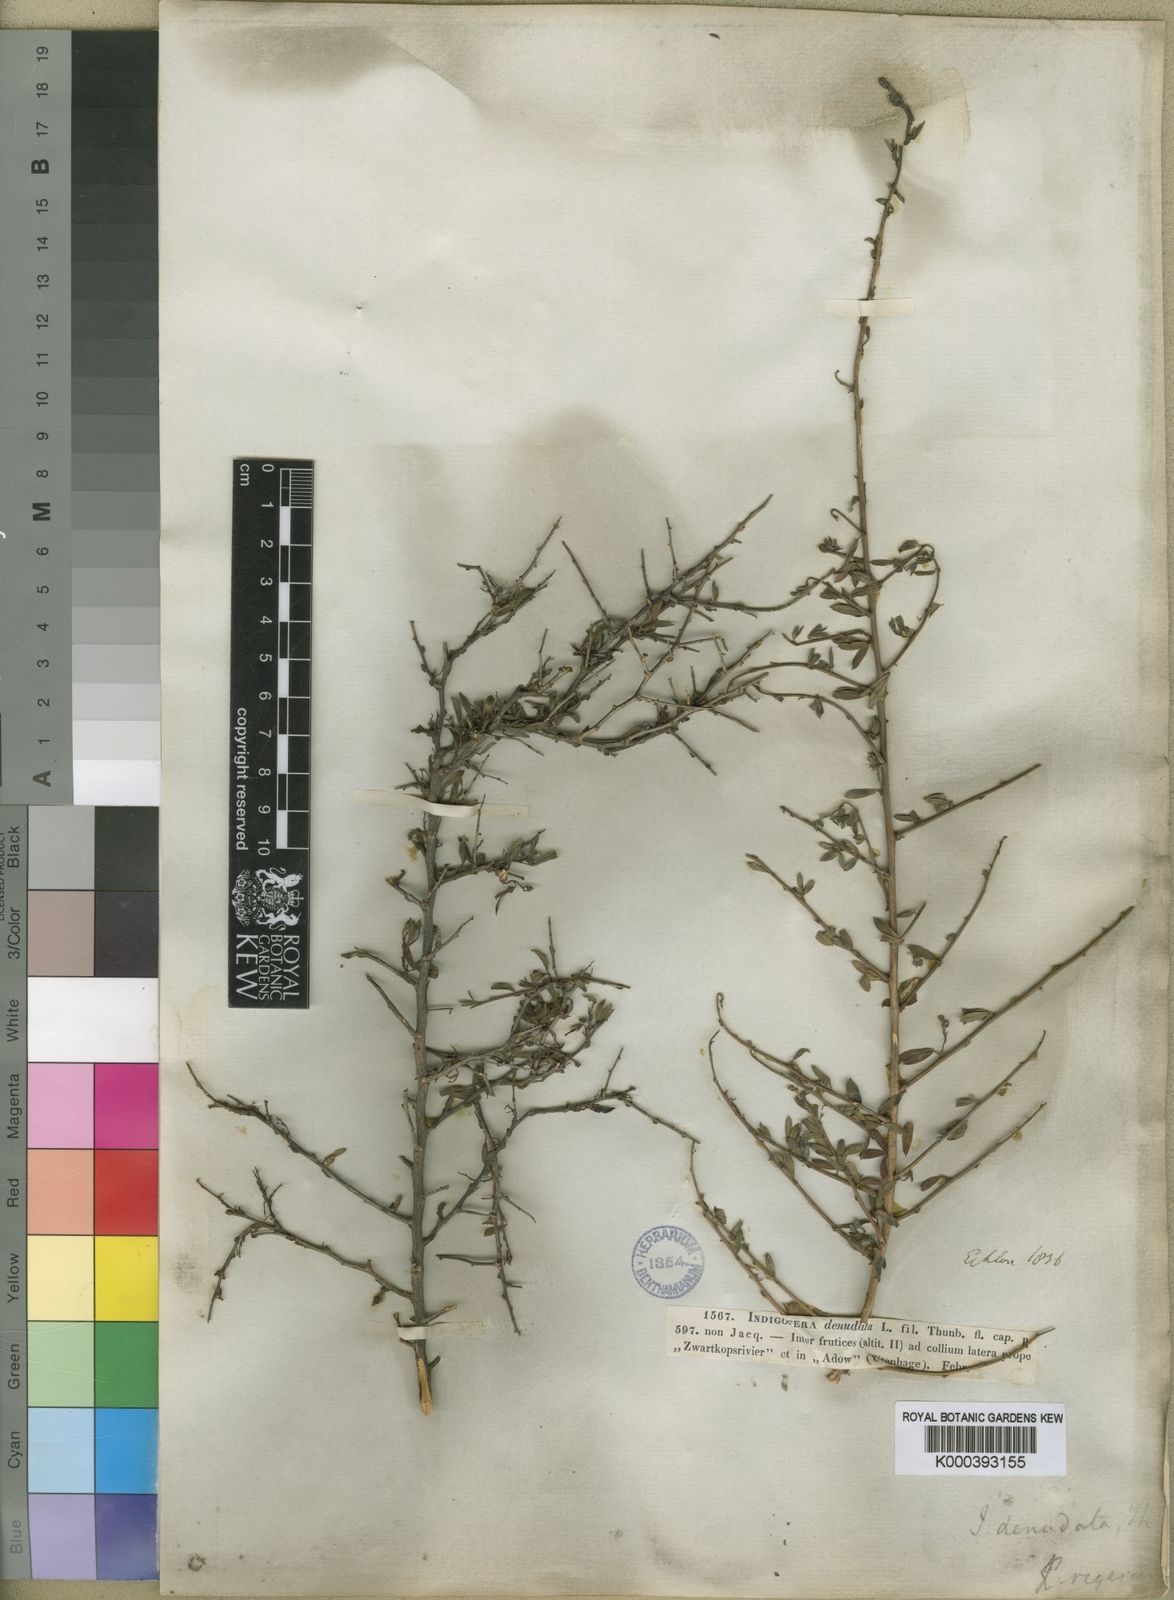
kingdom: Plantae
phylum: Tracheophyta
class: Magnoliopsida
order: Fabales
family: Fabaceae
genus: Indigofera
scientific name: Indigofera
